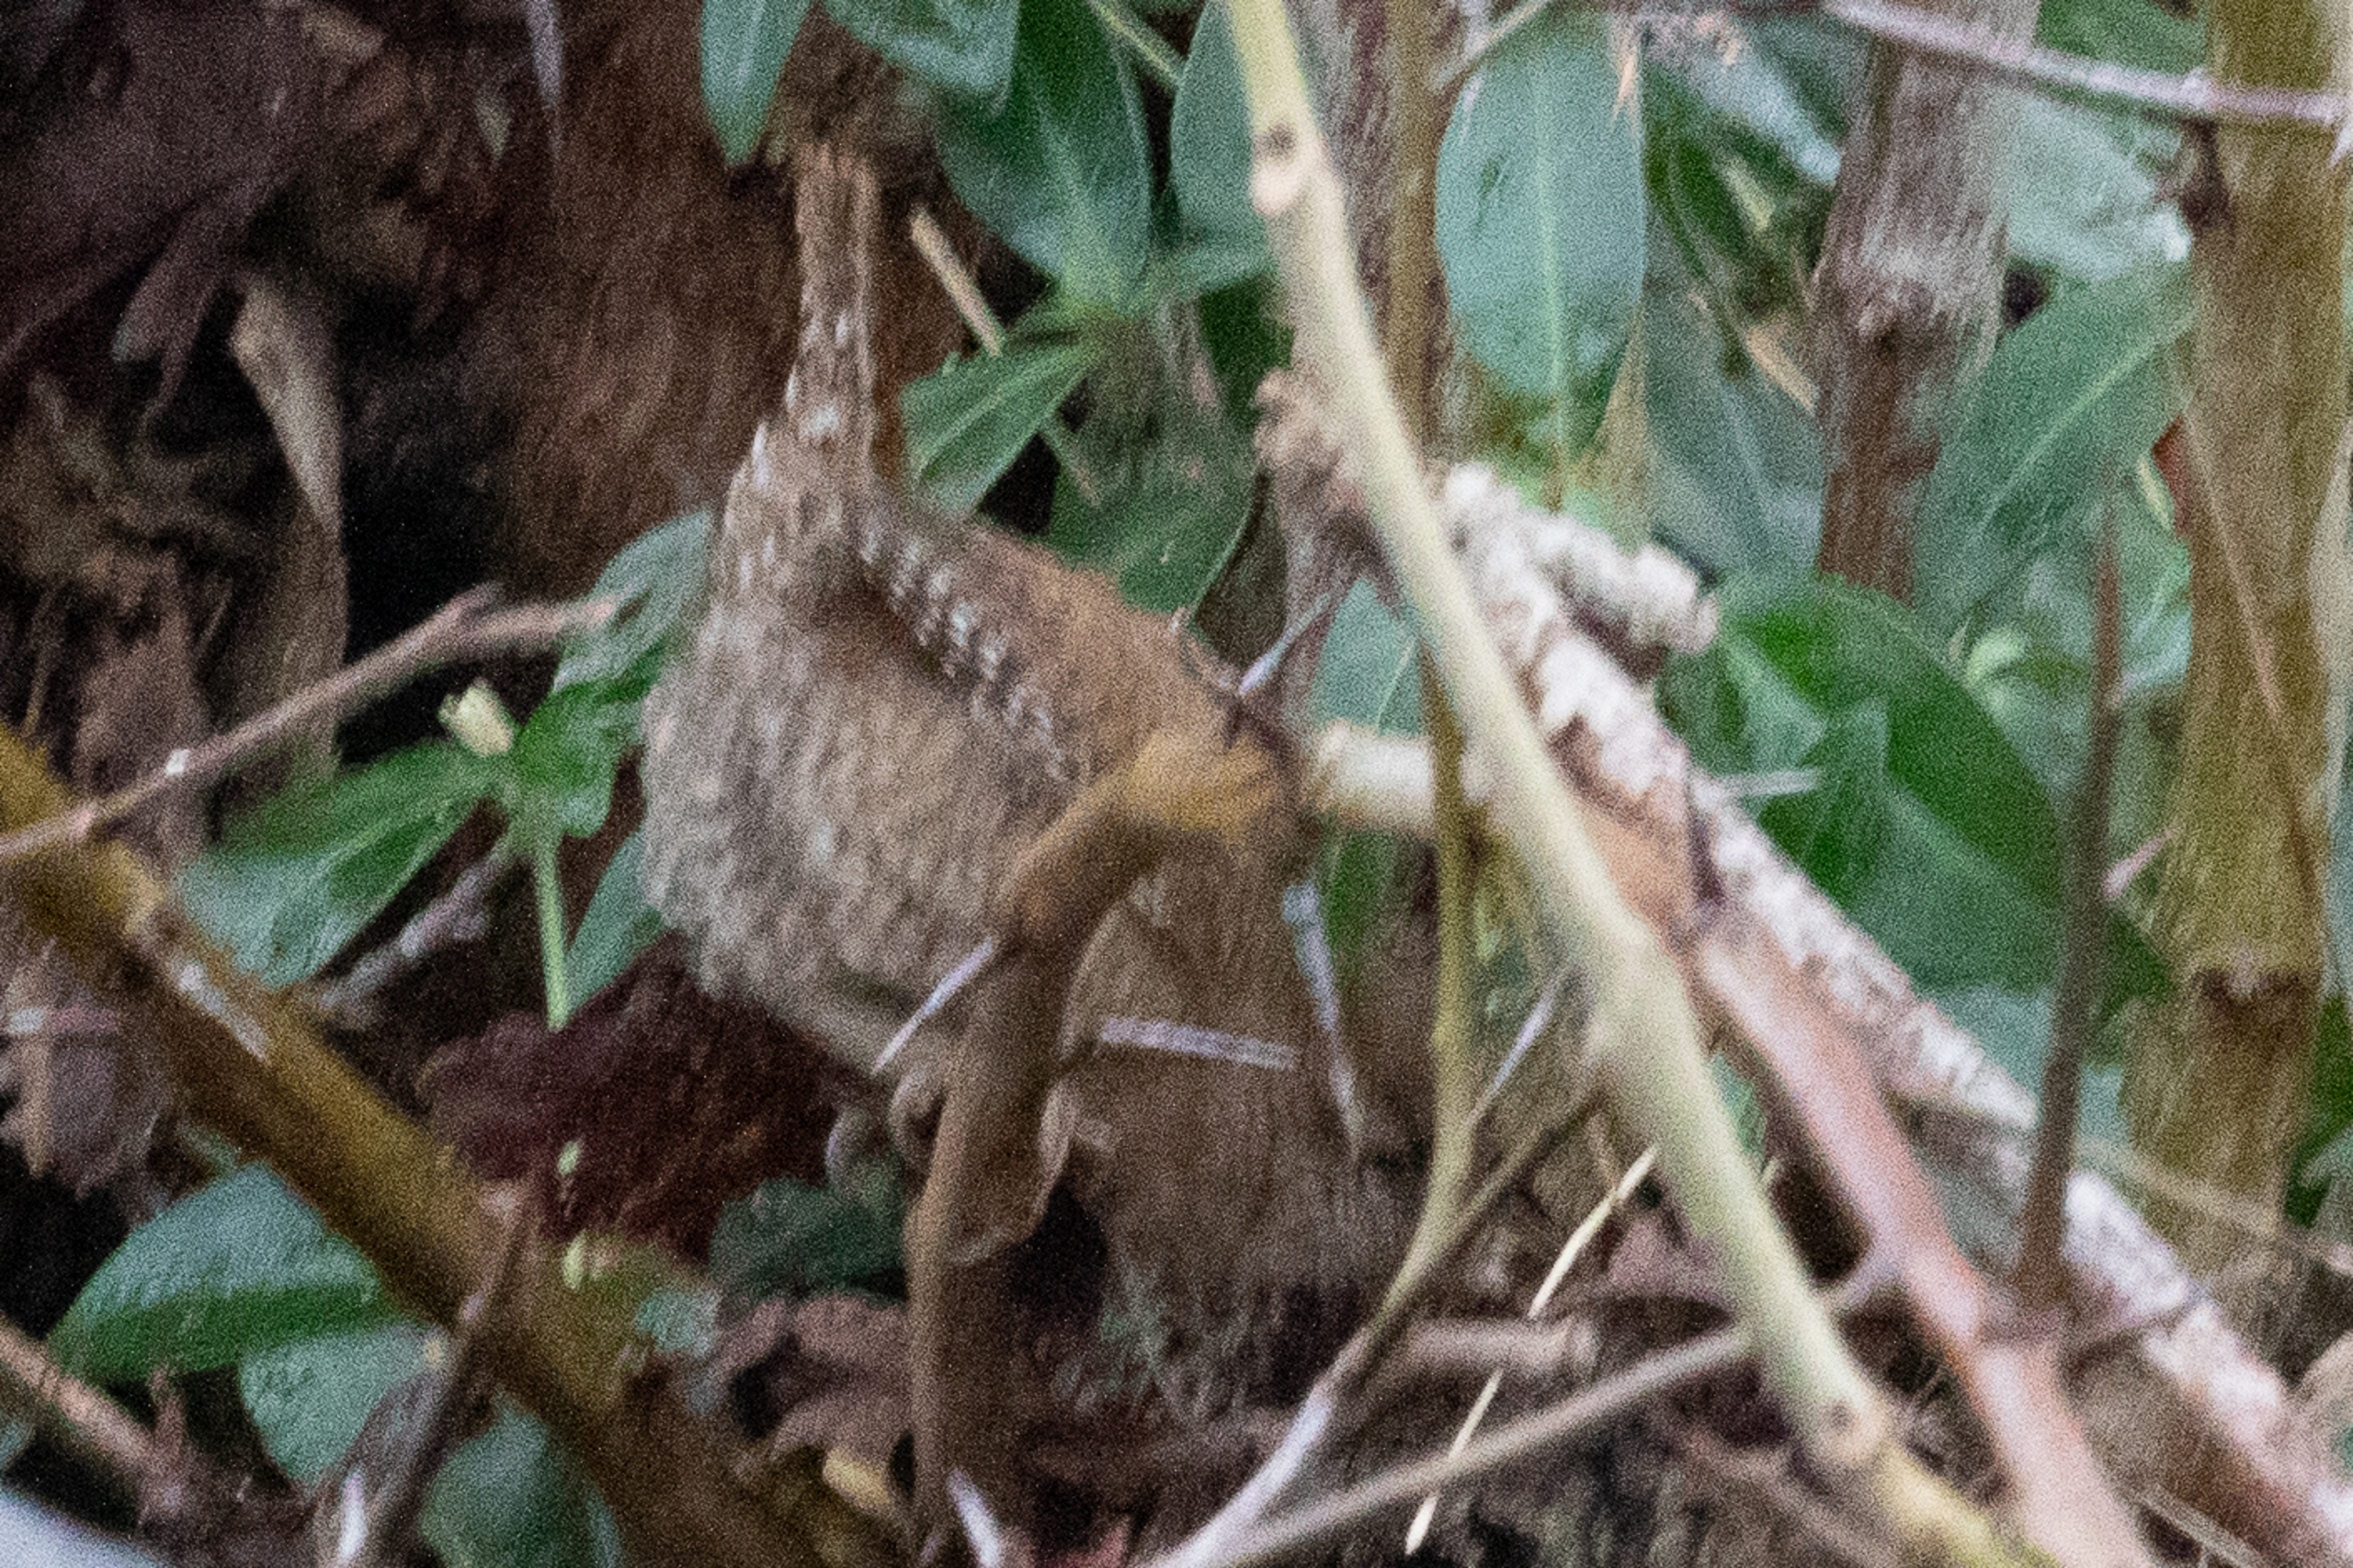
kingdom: Animalia
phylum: Chordata
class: Aves
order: Passeriformes
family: Troglodytidae
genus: Troglodytes
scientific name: Troglodytes troglodytes
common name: Gærdesmutte
